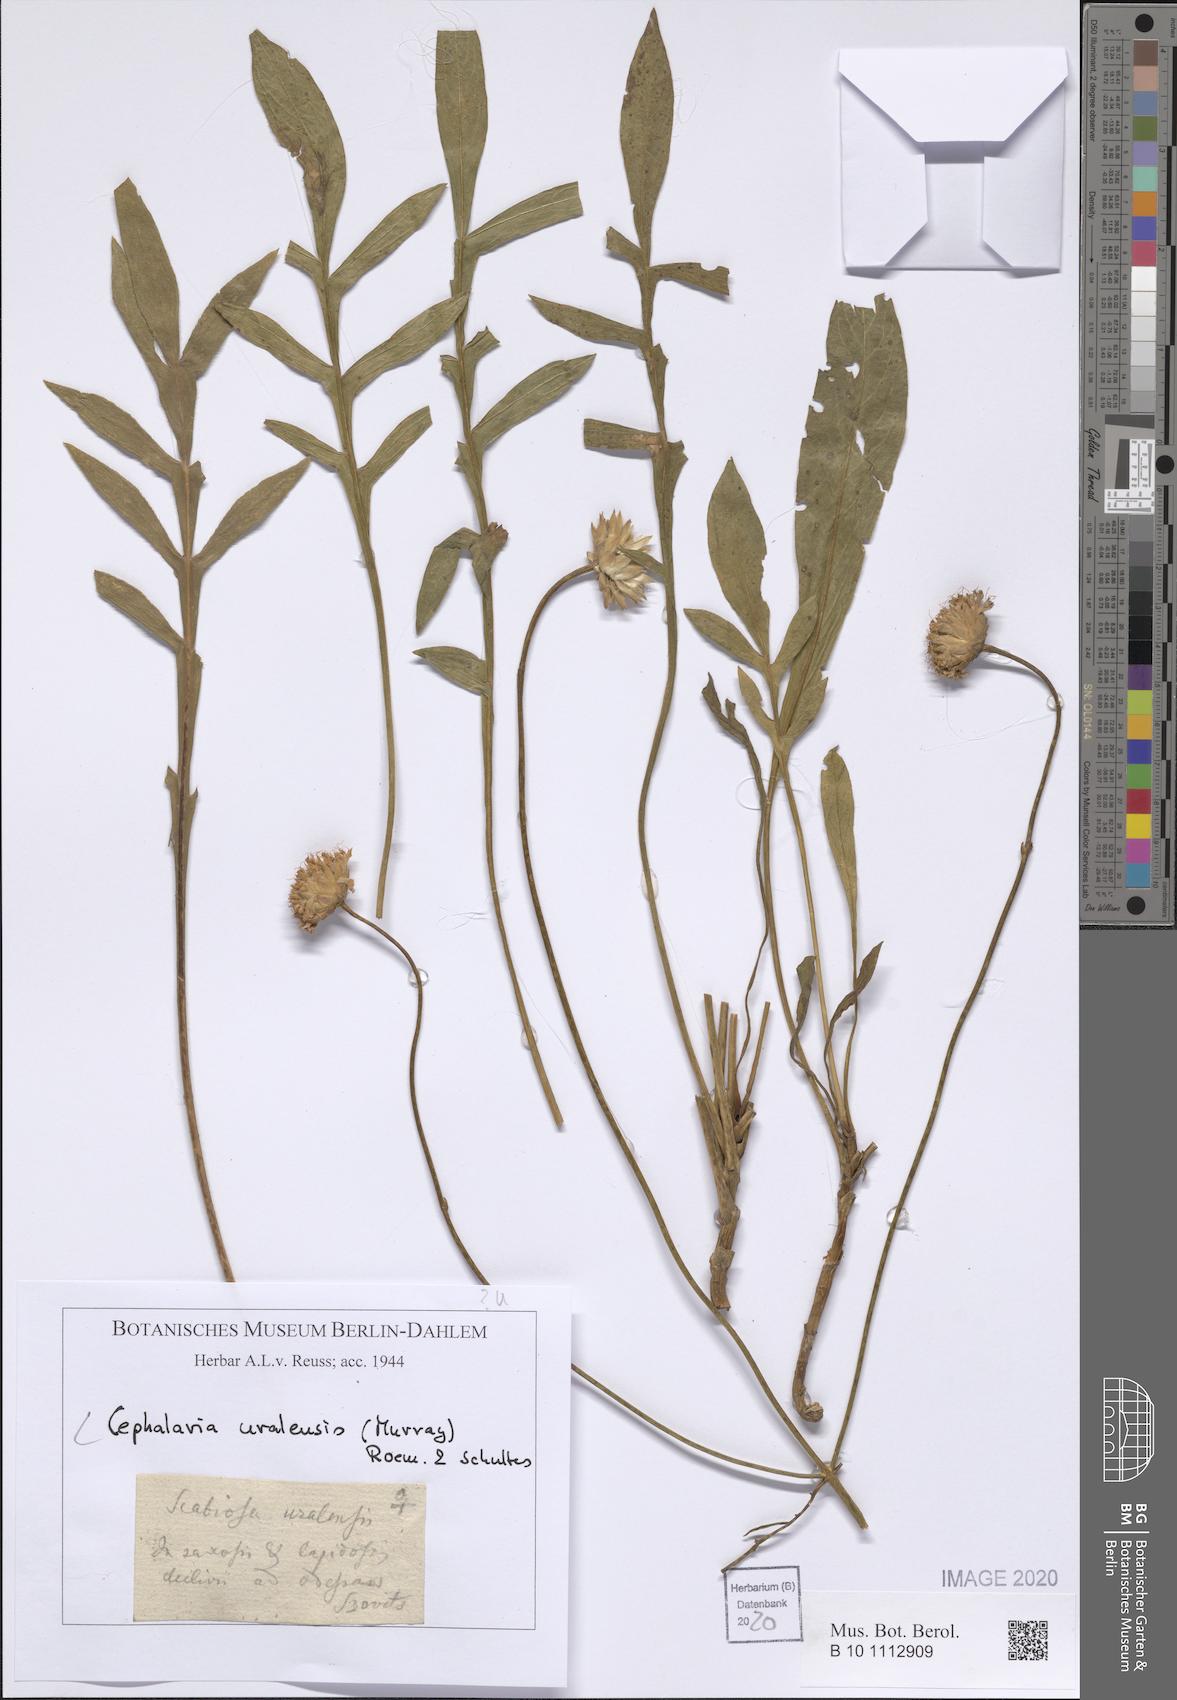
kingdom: Plantae
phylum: Tracheophyta
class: Magnoliopsida
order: Dipsacales
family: Caprifoliaceae
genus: Cephalaria
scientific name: Cephalaria uralensis
